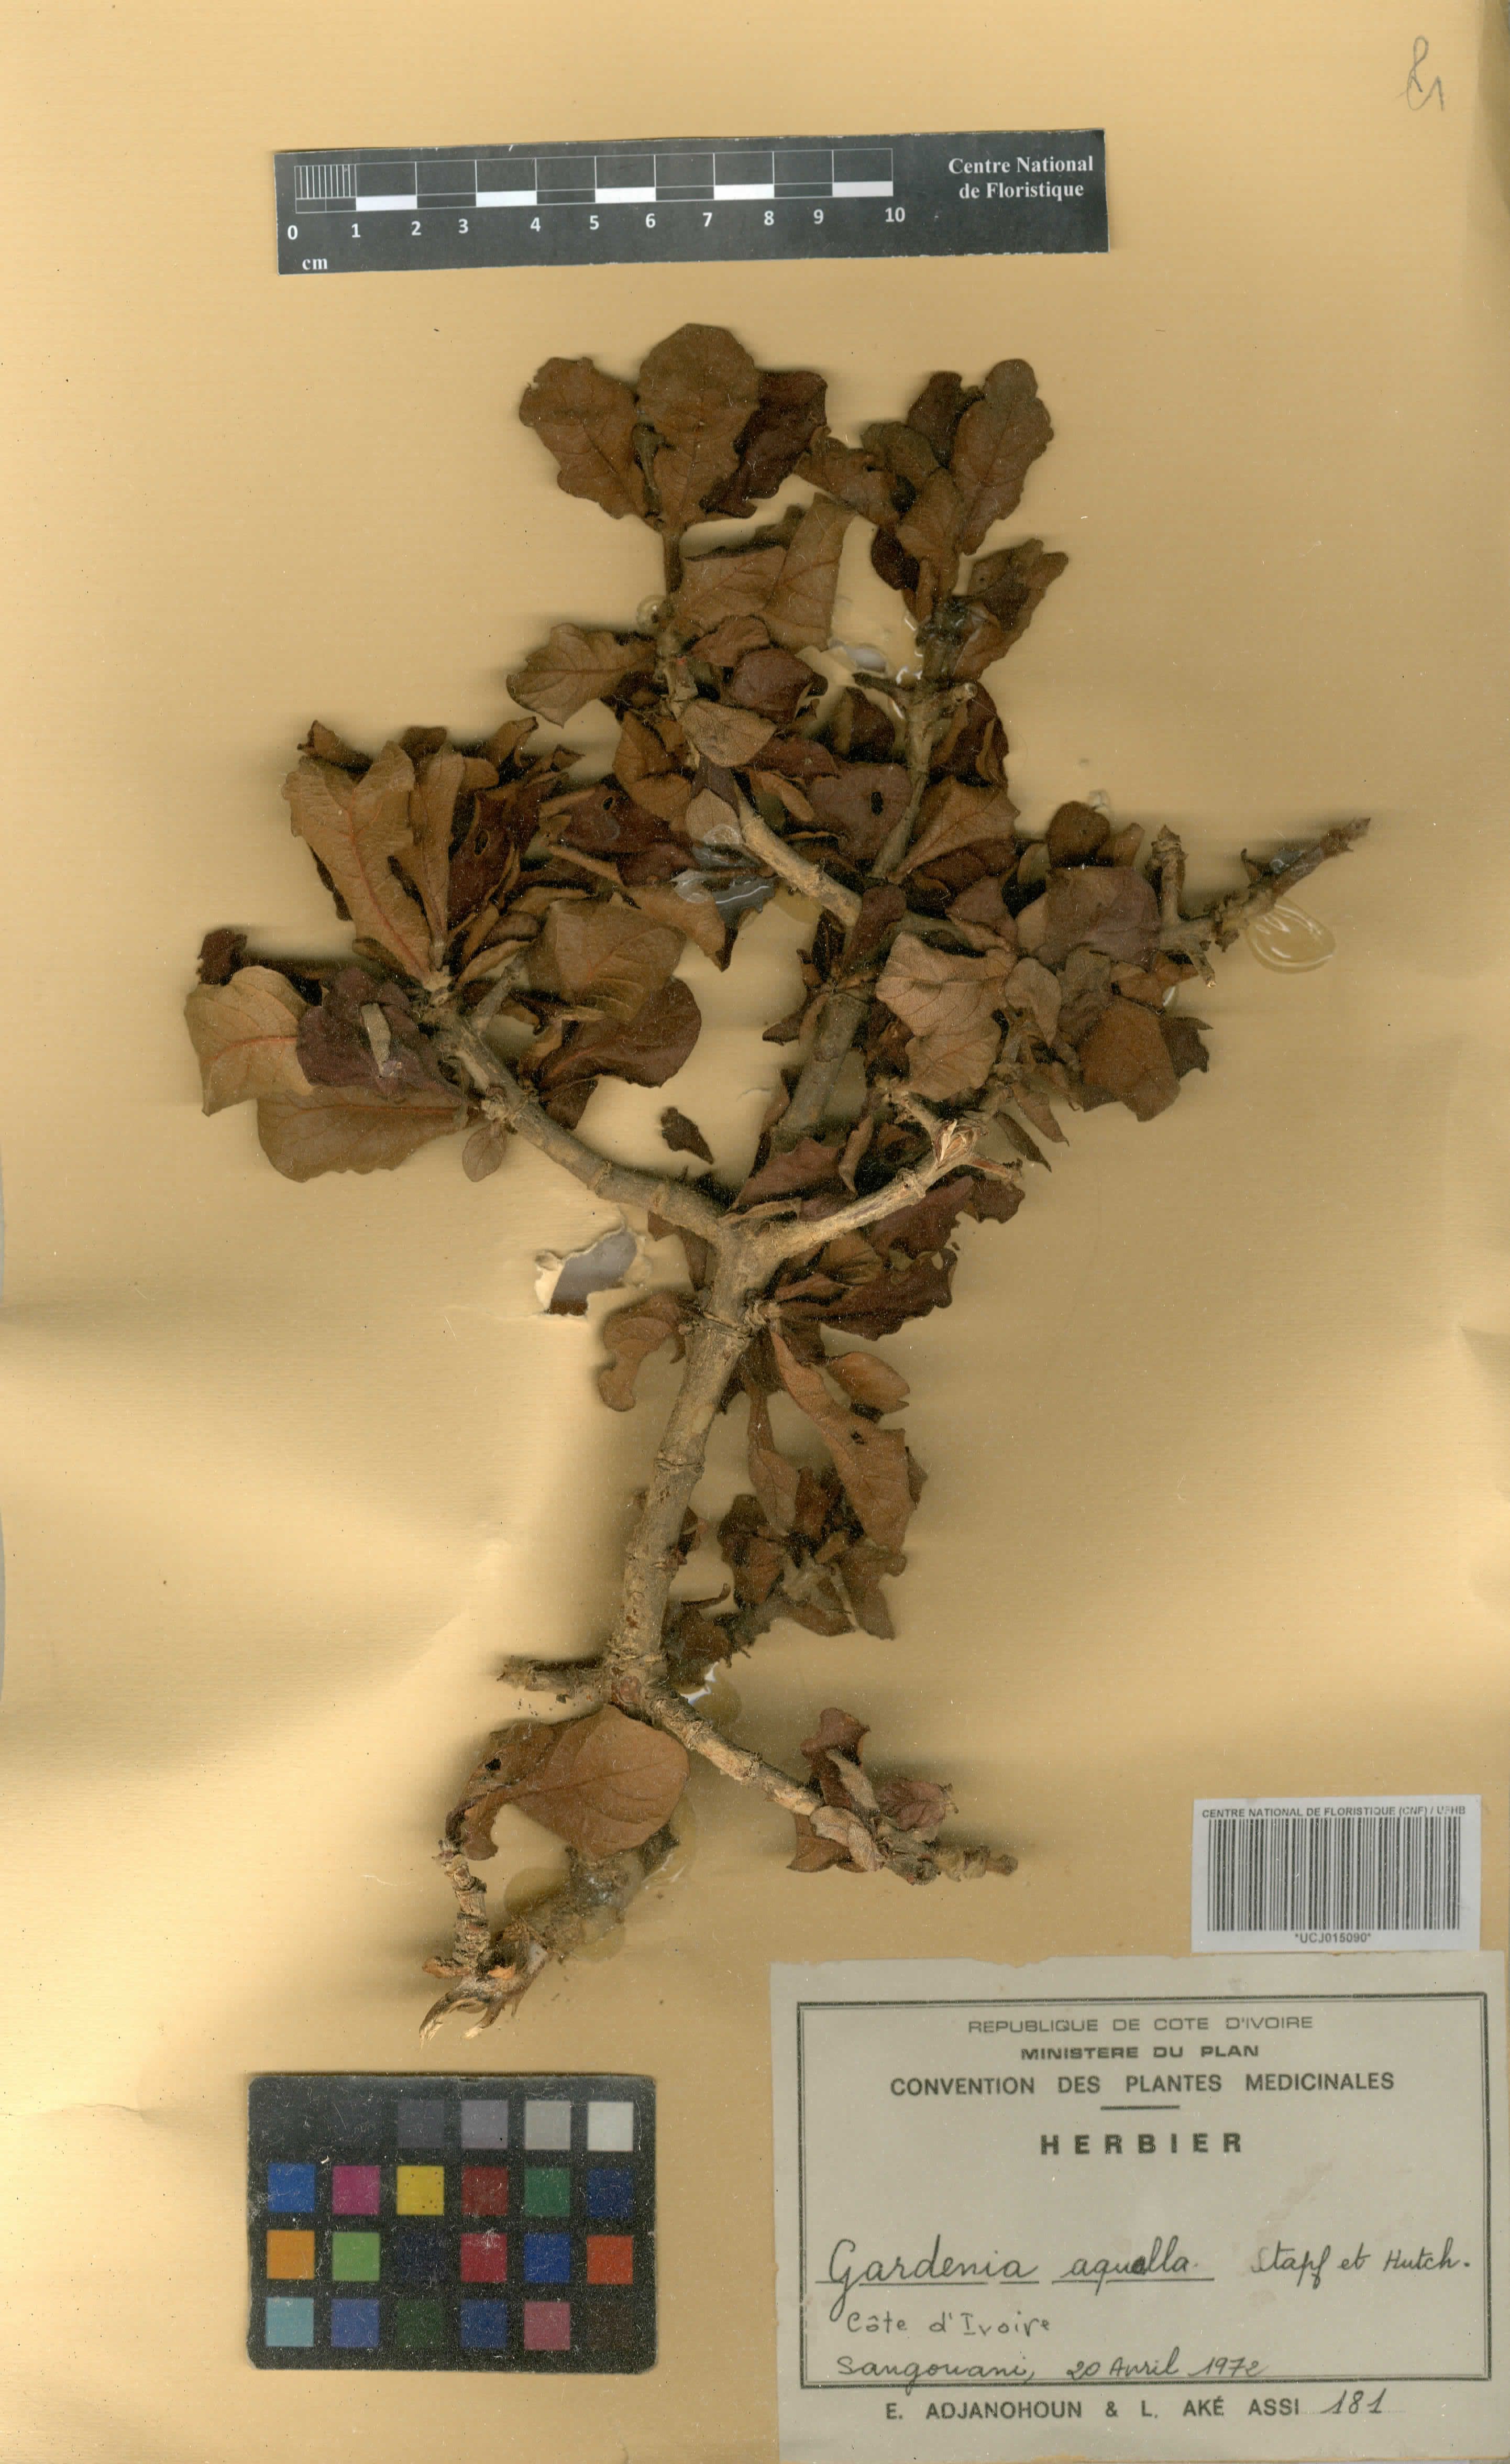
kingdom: Plantae
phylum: Tracheophyta
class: Magnoliopsida
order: Gentianales
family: Rubiaceae
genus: Gardenia
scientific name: Gardenia aqualla
